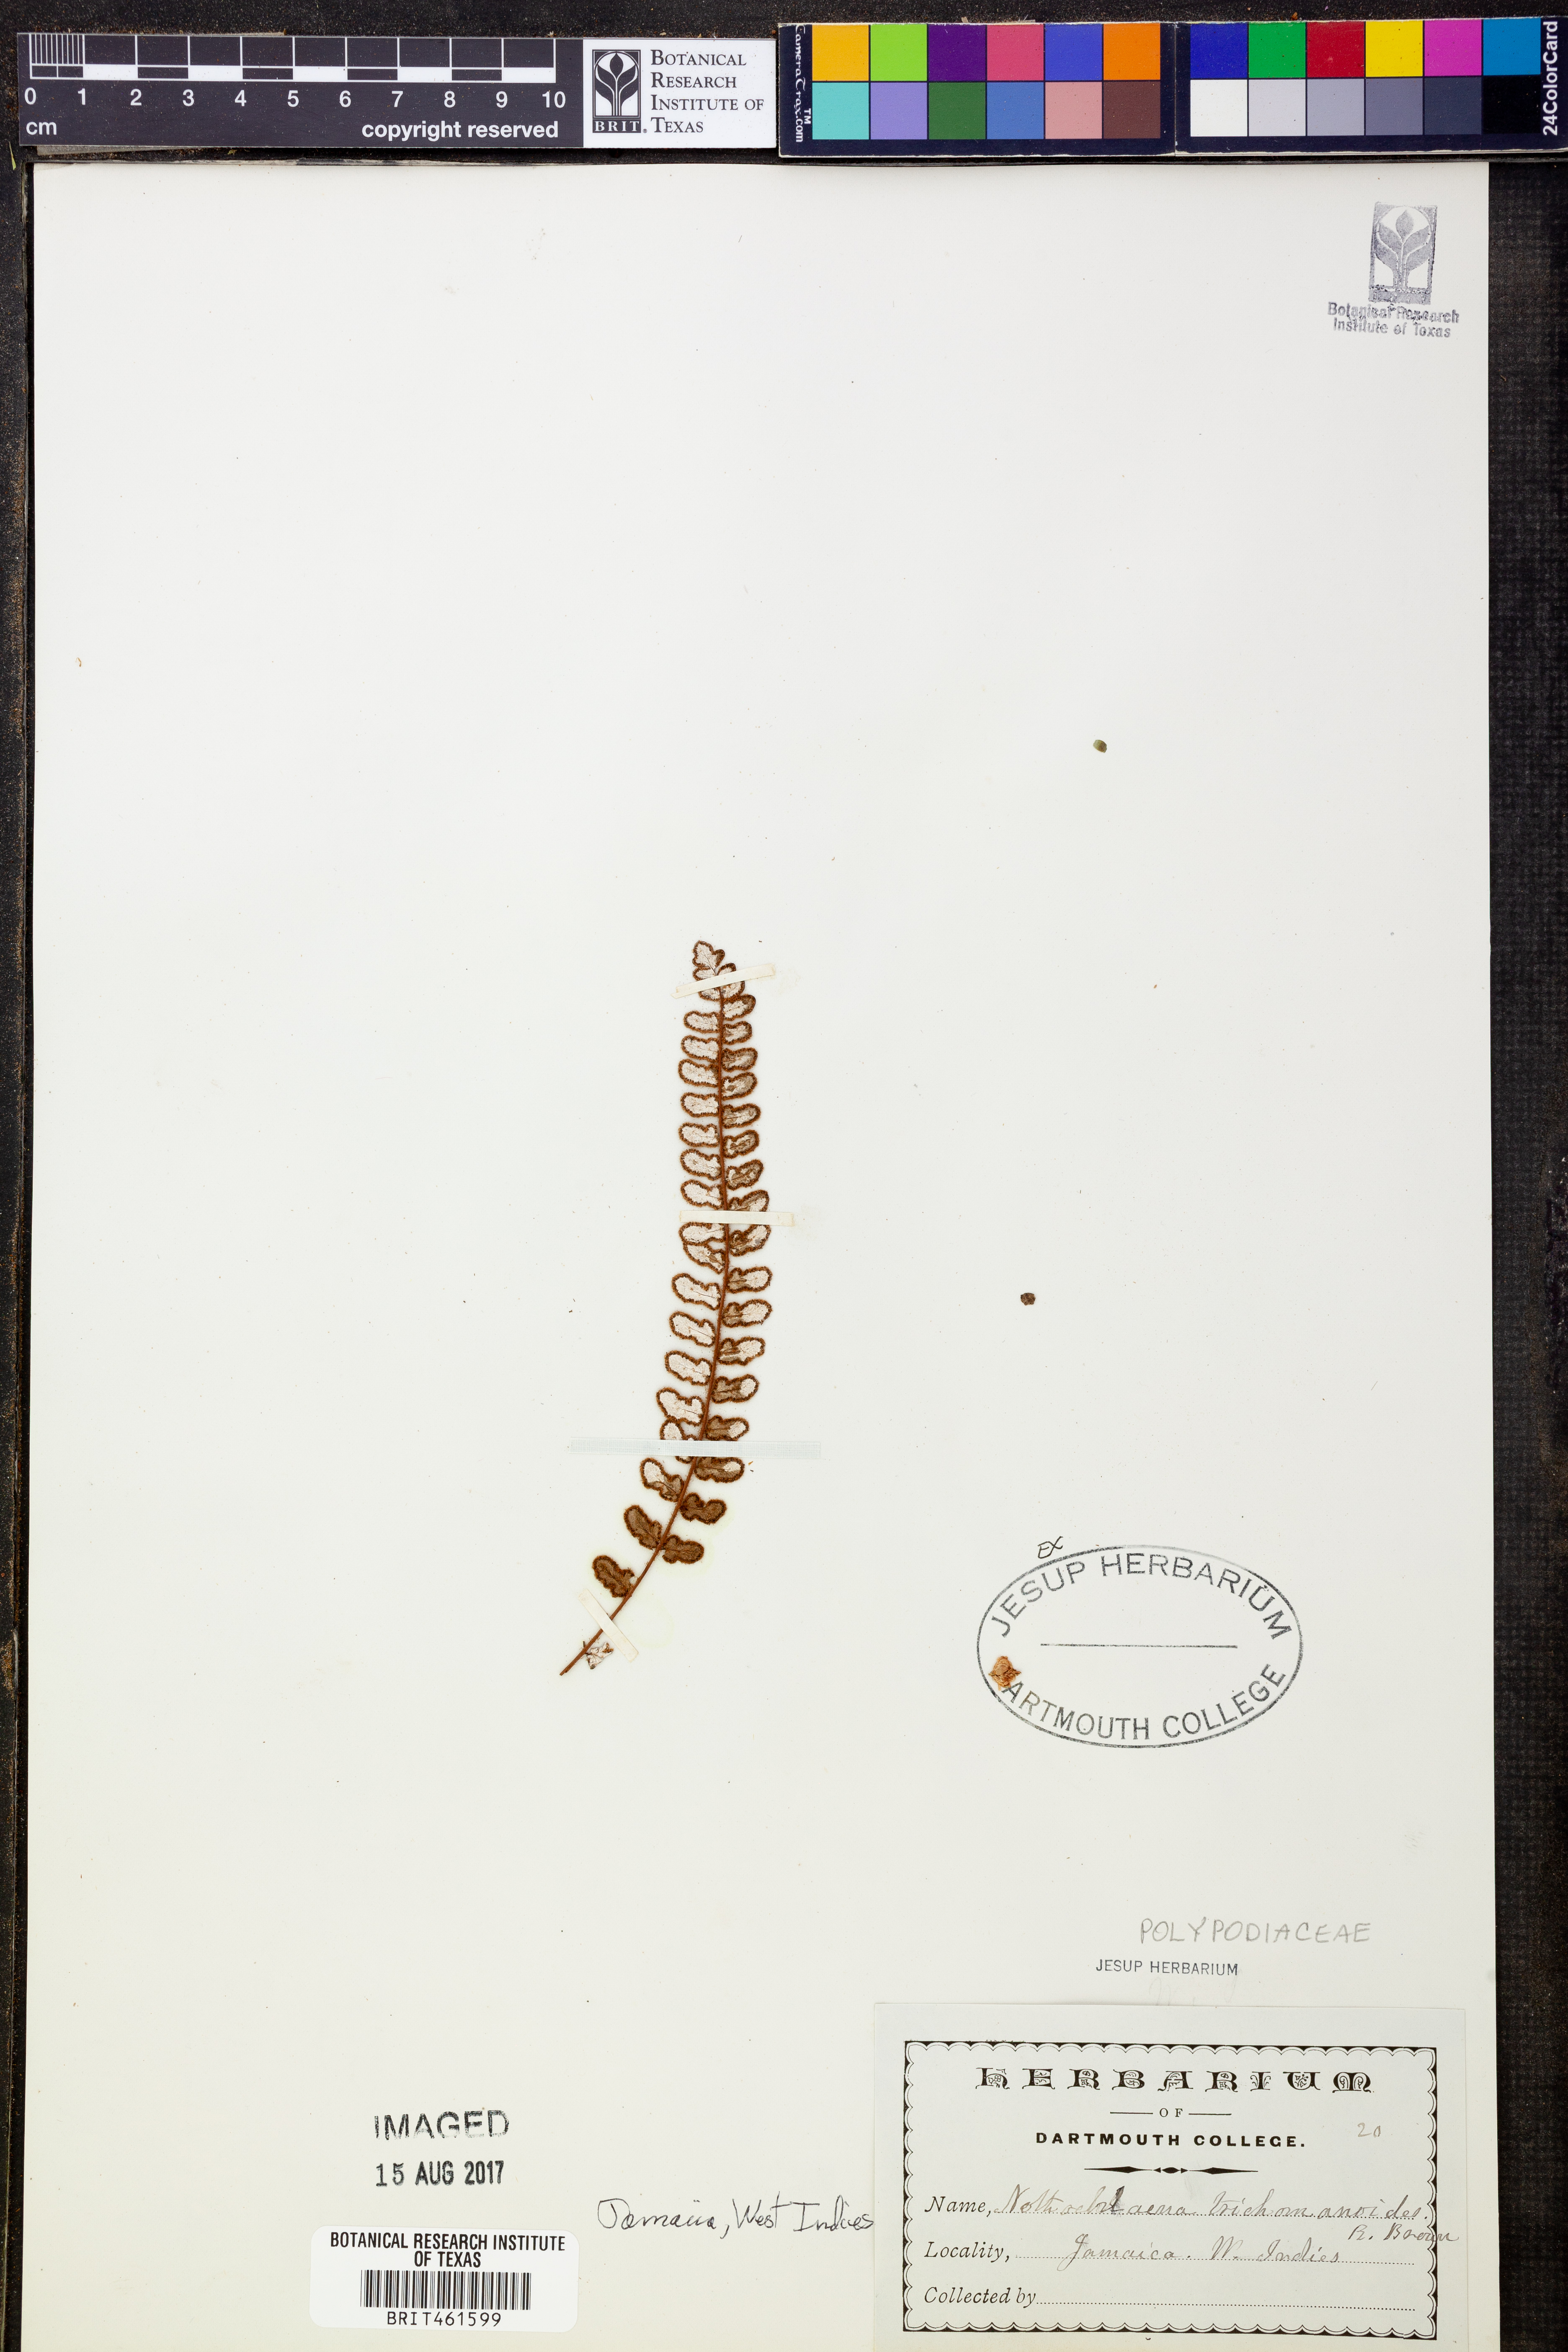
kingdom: Plantae
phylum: Tracheophyta
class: Polypodiopsida
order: Polypodiales
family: Pteridaceae
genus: Notholaena
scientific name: Notholaena trichomanoides
